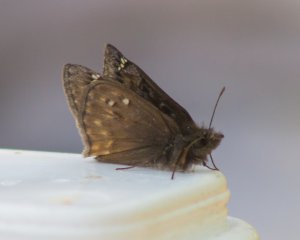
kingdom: Animalia
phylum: Arthropoda
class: Insecta
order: Lepidoptera
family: Hesperiidae
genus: Gesta
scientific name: Gesta
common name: Juvenal's Duskywing
